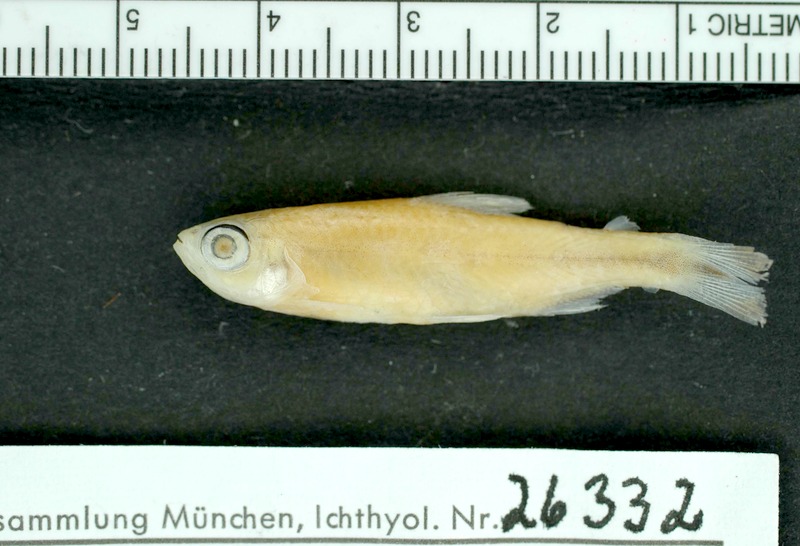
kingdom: Animalia
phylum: Chordata
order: Characiformes
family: Characidae
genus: Petitella
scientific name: Petitella georgiae
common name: False rummynose tetra
